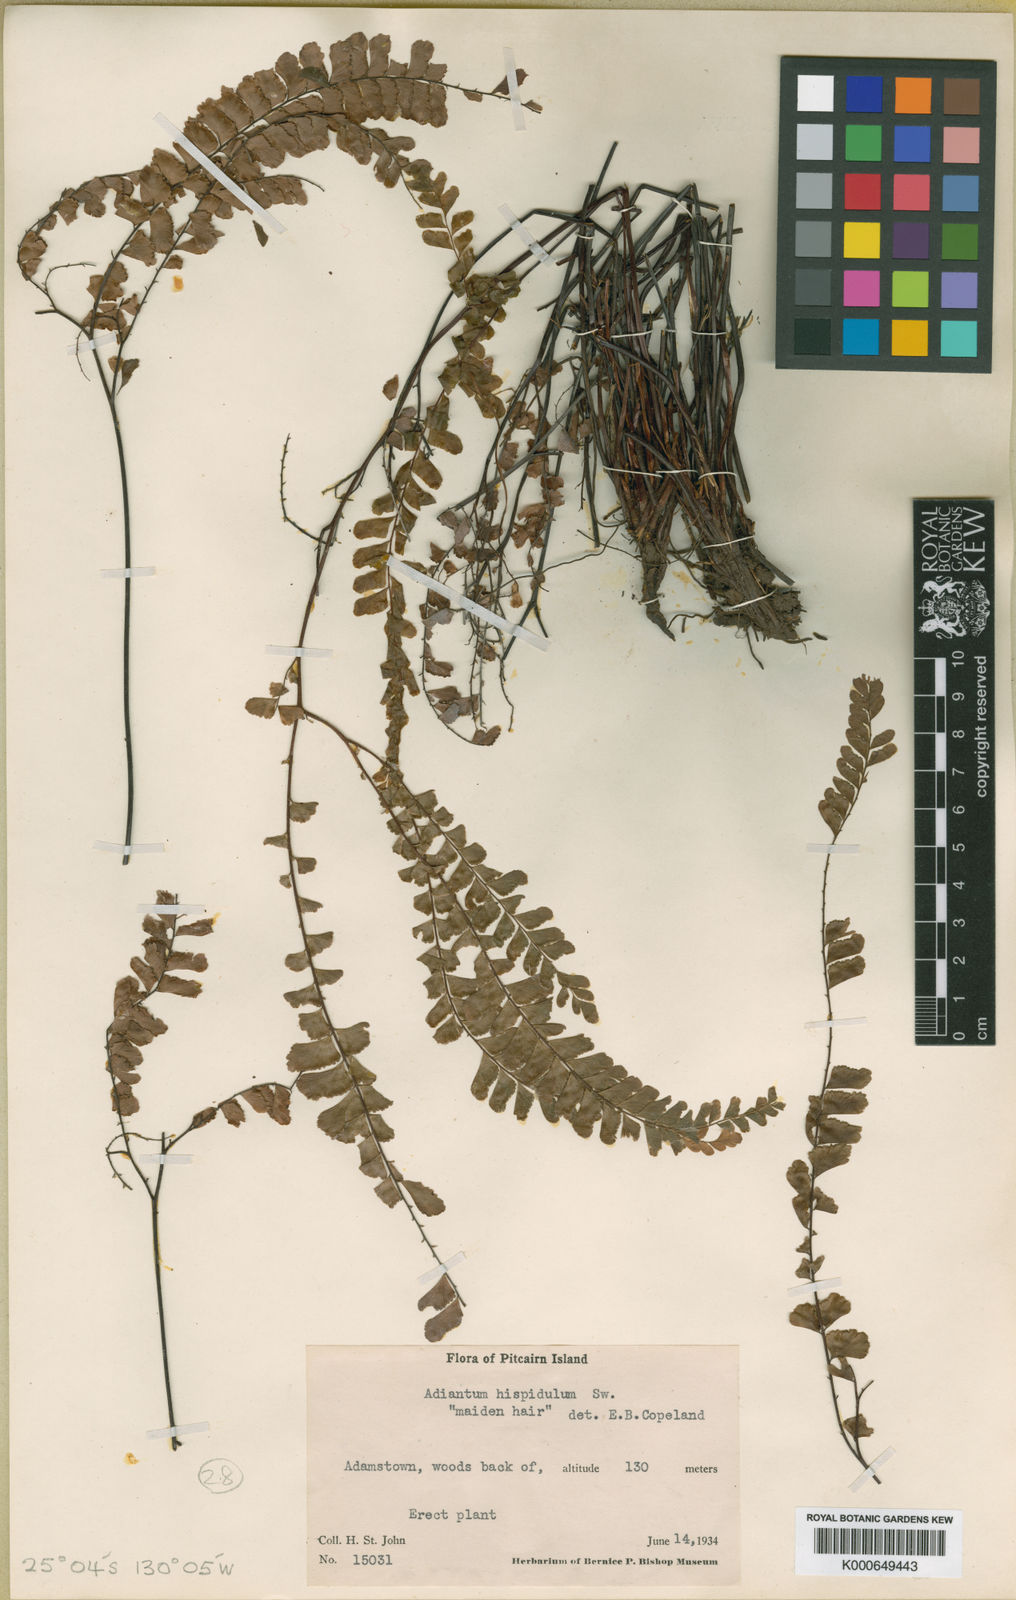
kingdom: Plantae
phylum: Tracheophyta
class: Polypodiopsida
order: Polypodiales
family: Pteridaceae
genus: Adiantum
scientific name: Adiantum
